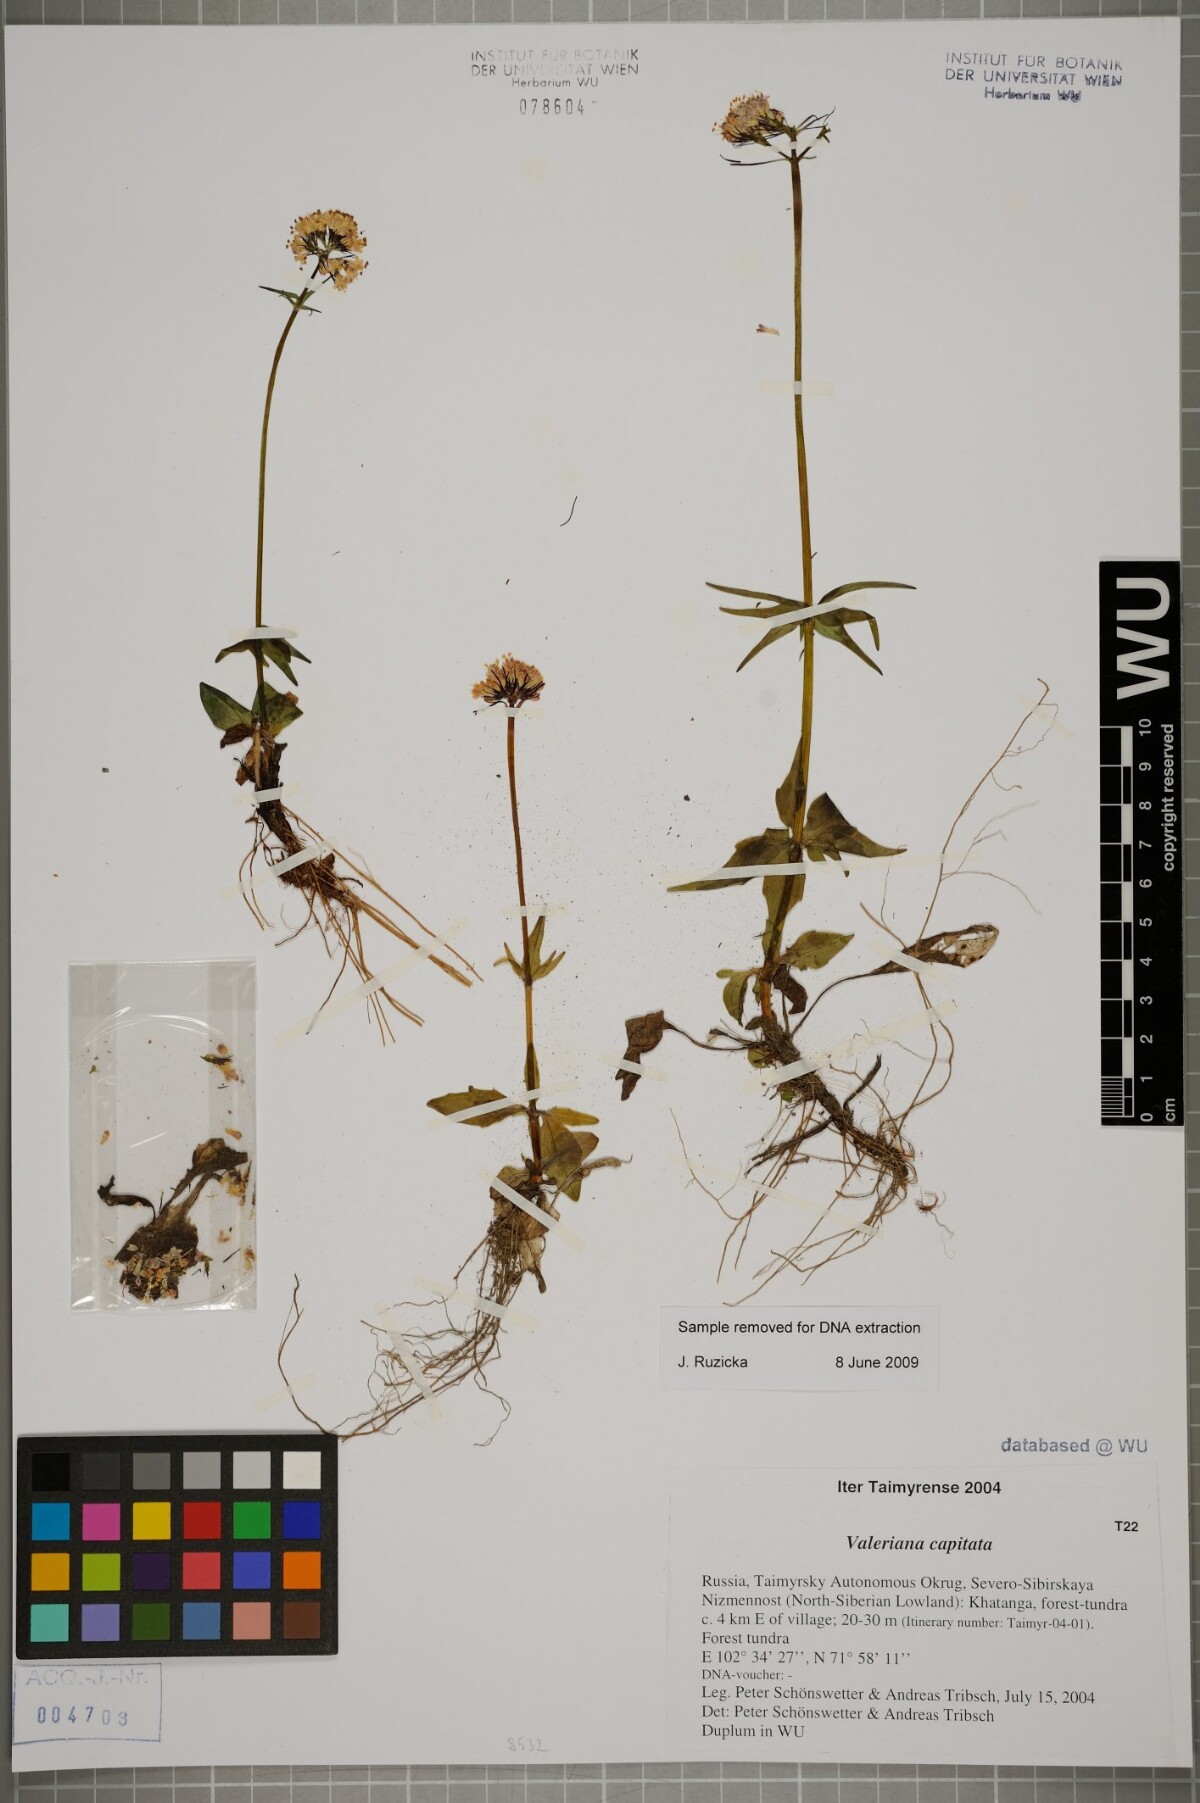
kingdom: Plantae
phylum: Tracheophyta
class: Magnoliopsida
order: Dipsacales
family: Caprifoliaceae
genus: Valeriana
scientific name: Valeriana capitata
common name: Capitate valerian
